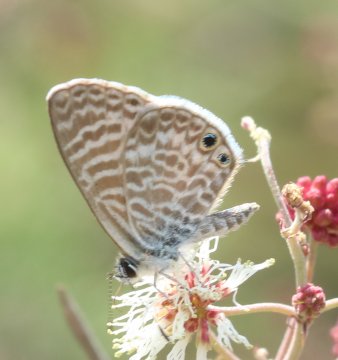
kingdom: Animalia
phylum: Arthropoda
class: Insecta
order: Lepidoptera
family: Lycaenidae
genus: Leptotes
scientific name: Leptotes marina
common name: Marine Blue
